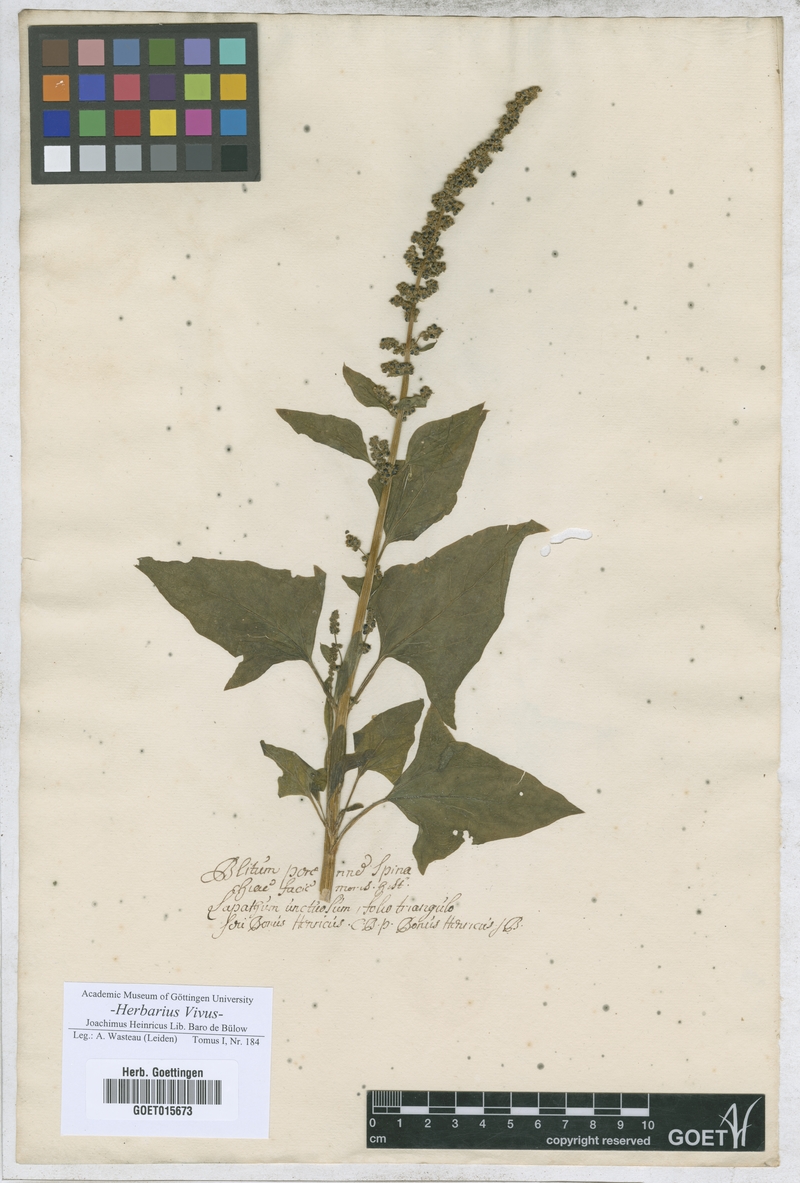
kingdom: Plantae
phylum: Tracheophyta
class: Magnoliopsida
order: Caryophyllales
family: Amaranthaceae
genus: Blitum
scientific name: Blitum bonus-henricus
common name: Good king henry
